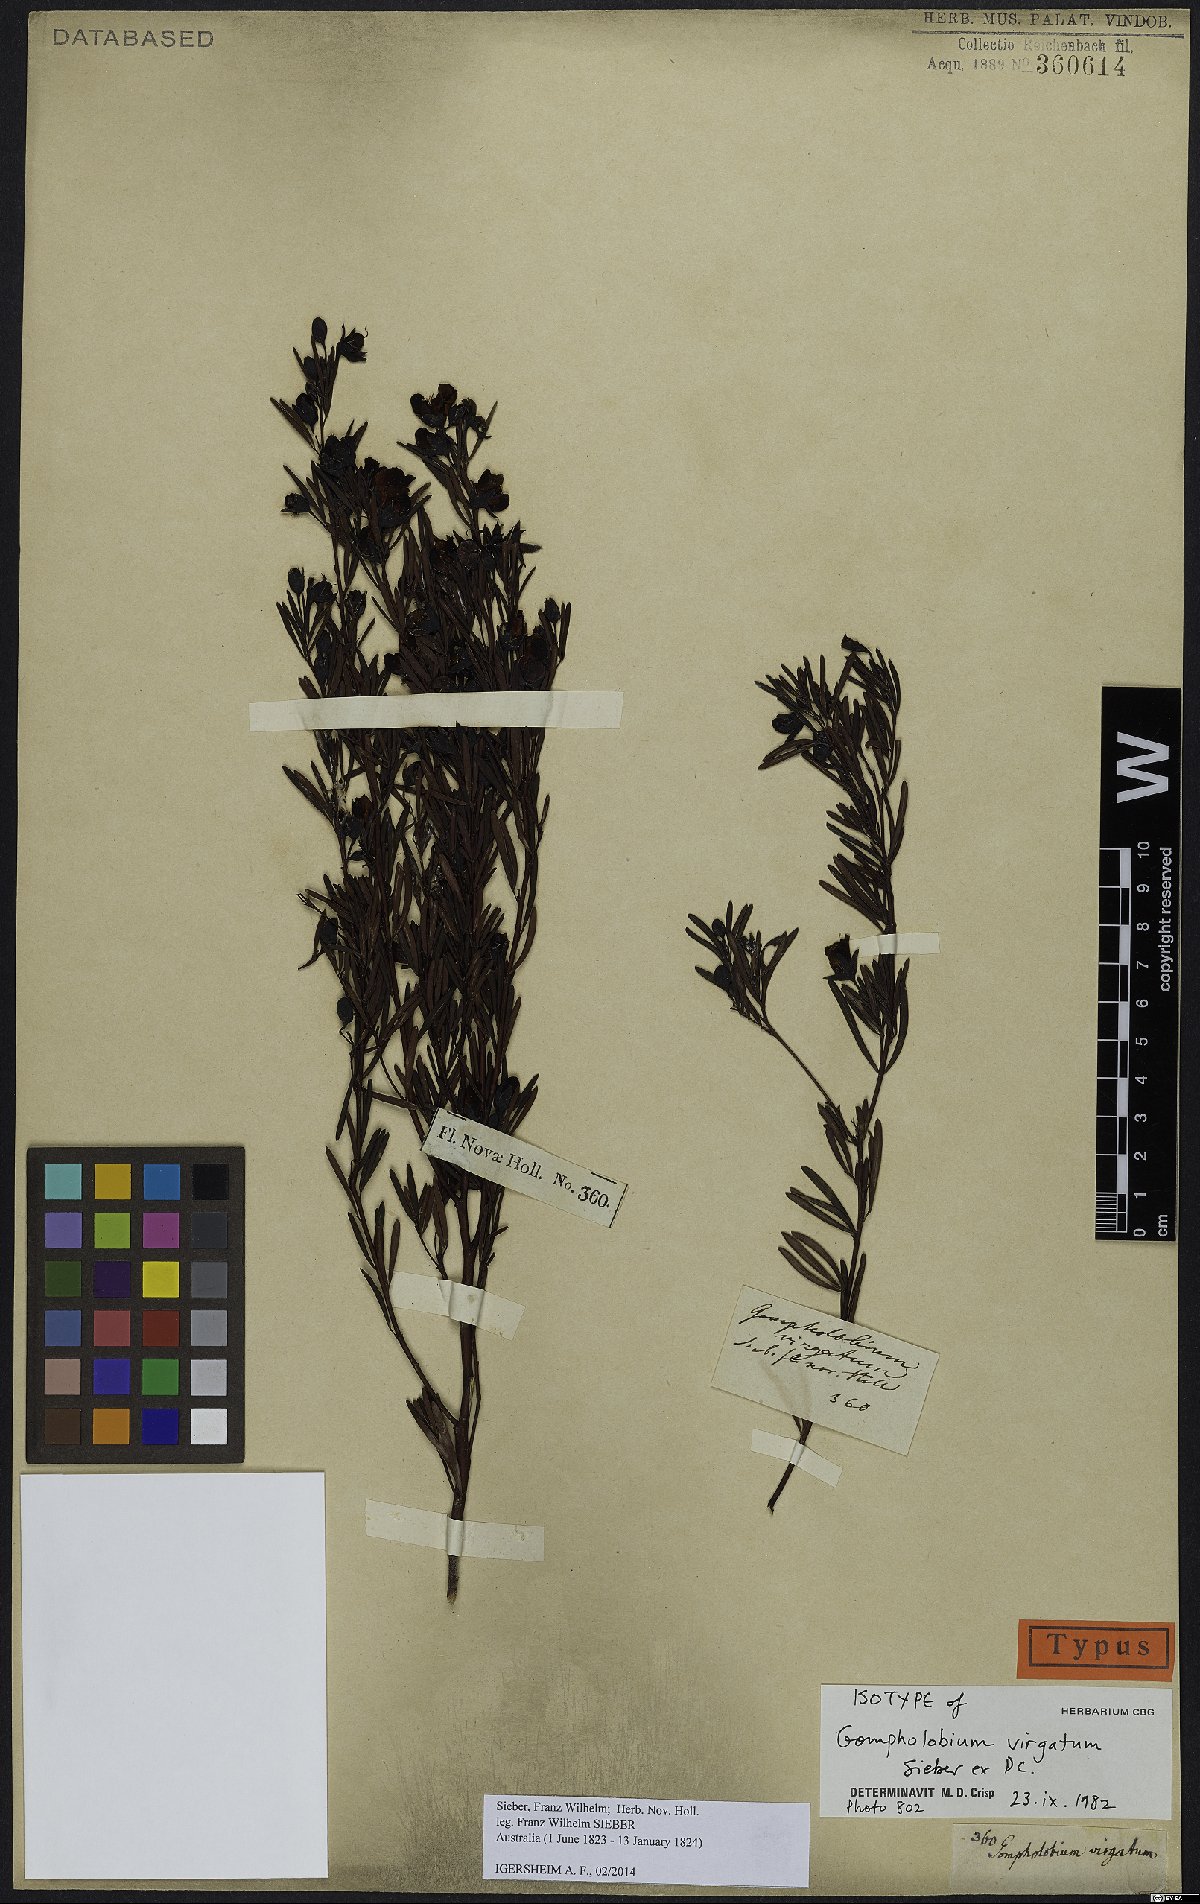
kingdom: Plantae
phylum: Tracheophyta
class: Magnoliopsida
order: Fabales
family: Fabaceae
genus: Gompholobium
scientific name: Gompholobium virgatum
